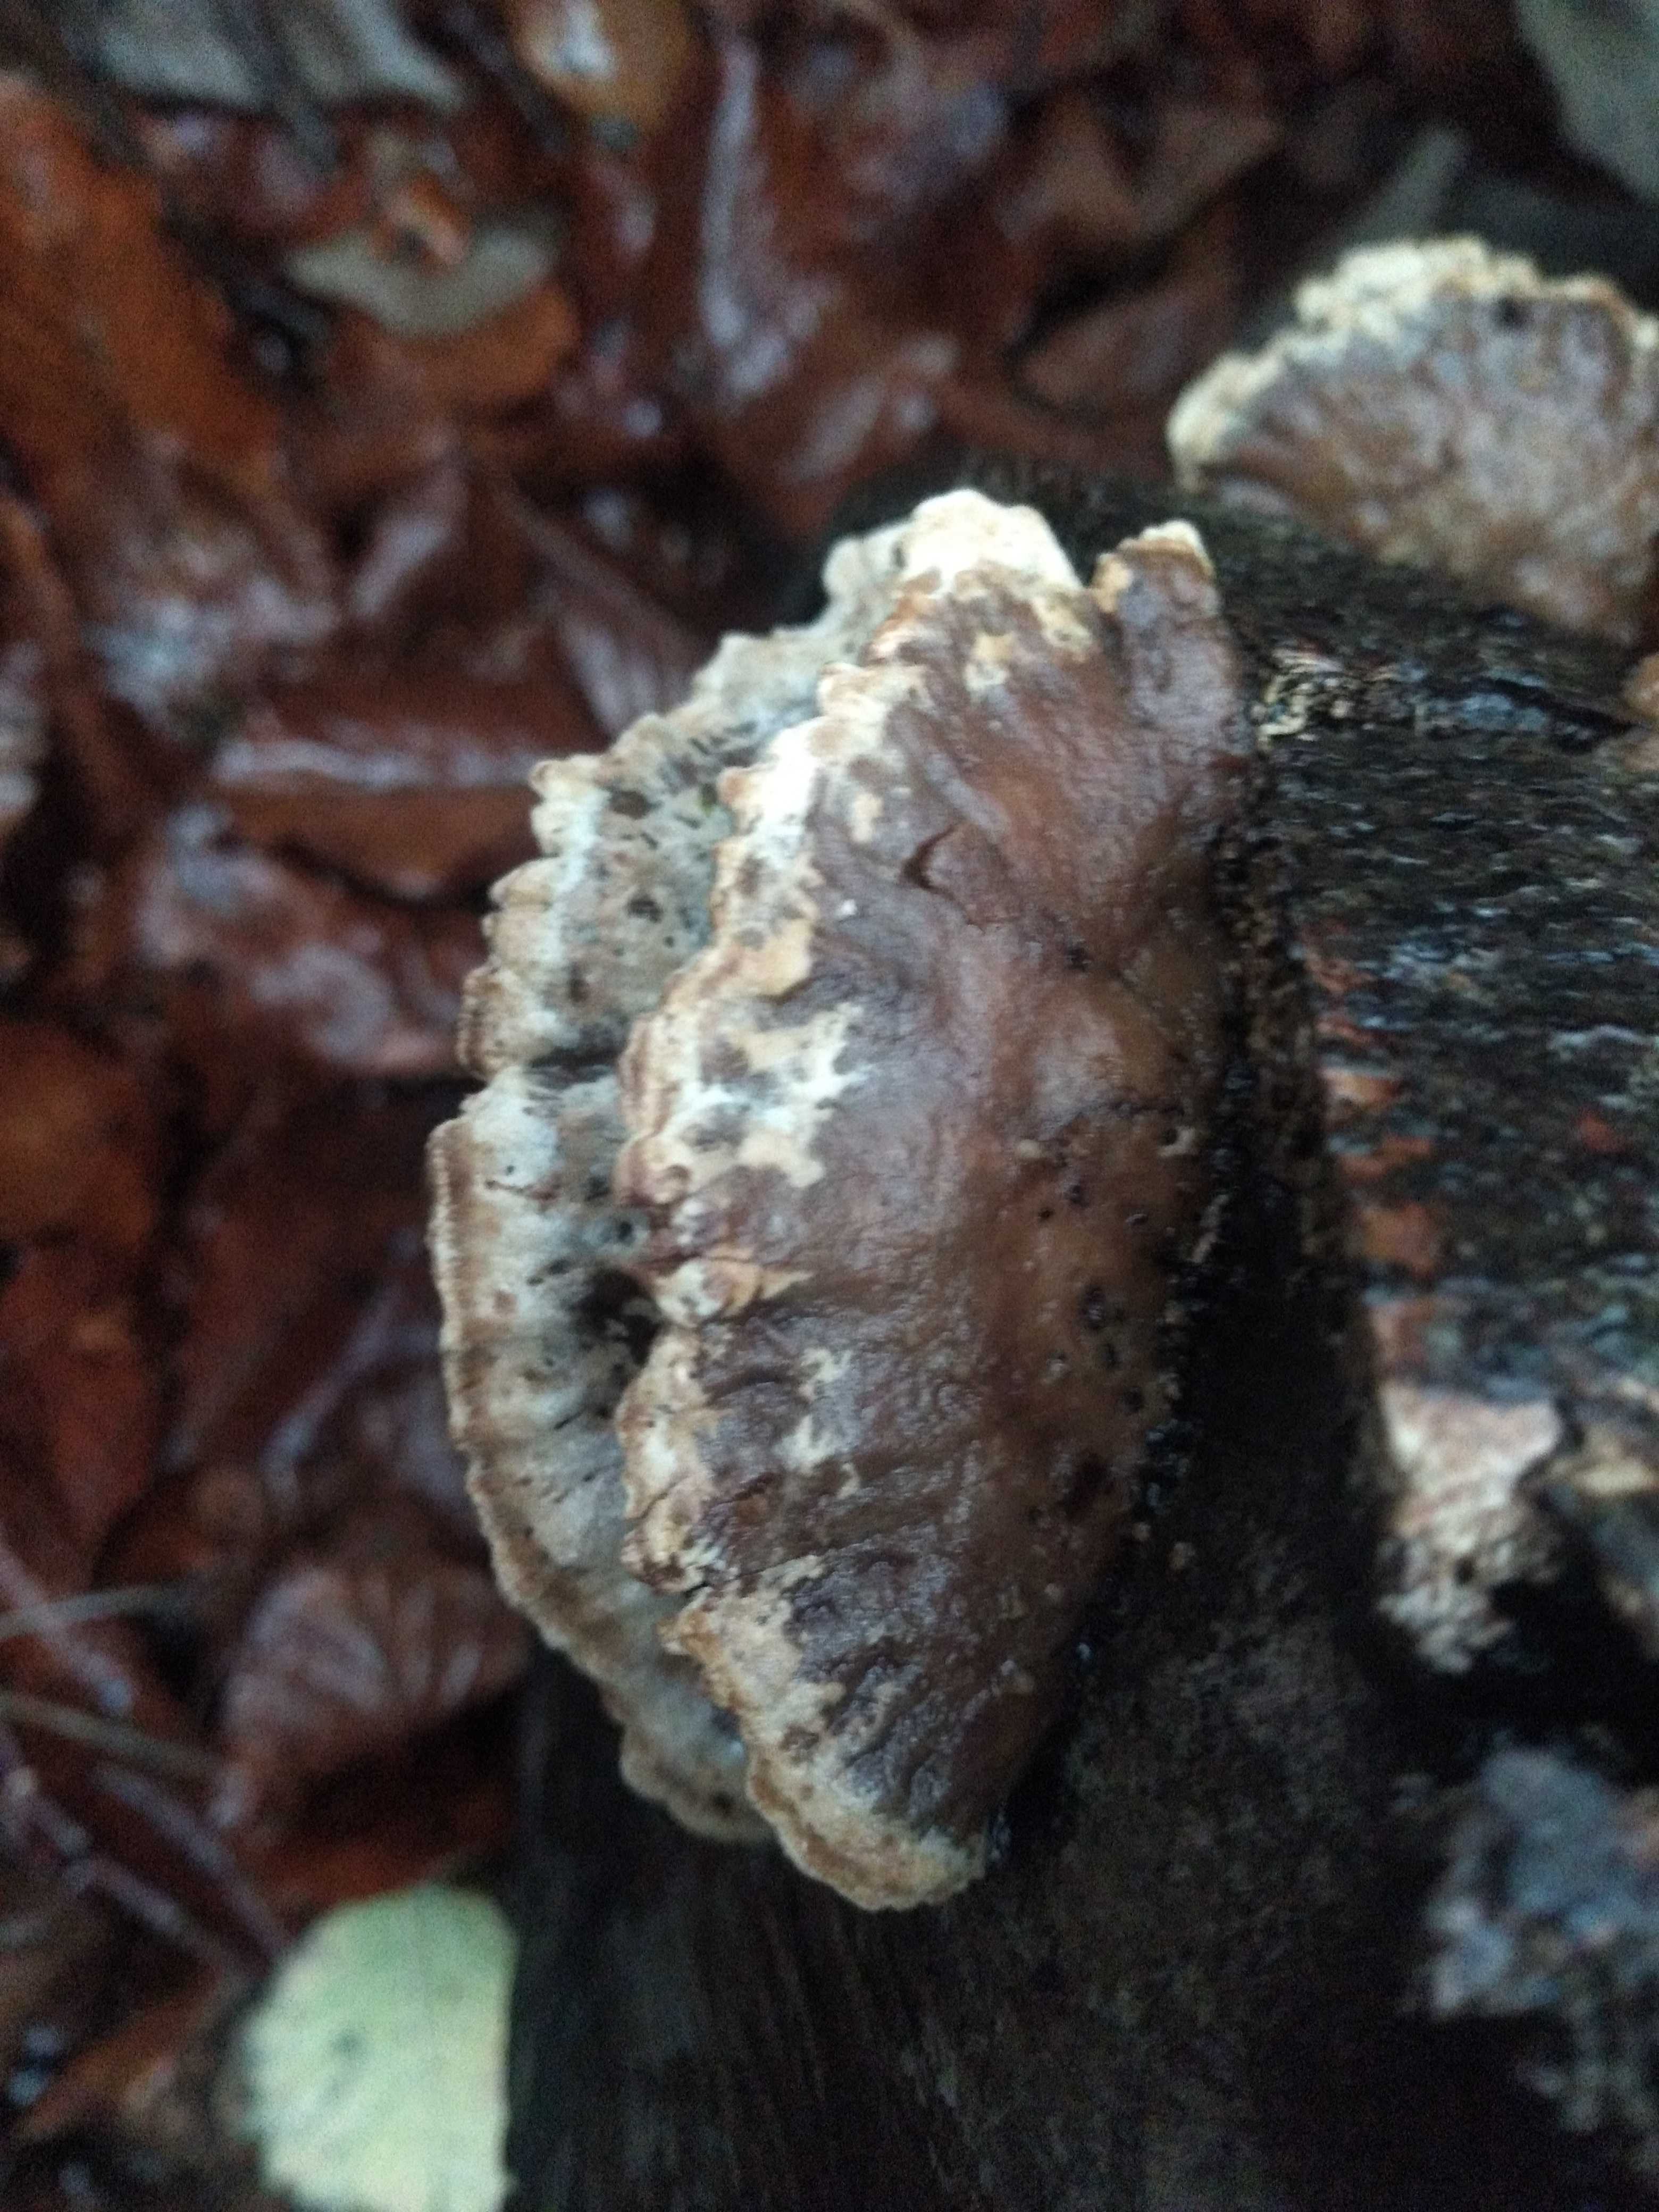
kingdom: Fungi
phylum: Basidiomycota
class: Agaricomycetes
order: Polyporales
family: Phanerochaetaceae
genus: Bjerkandera
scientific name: Bjerkandera fumosa
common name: grågul sodporesvamp
